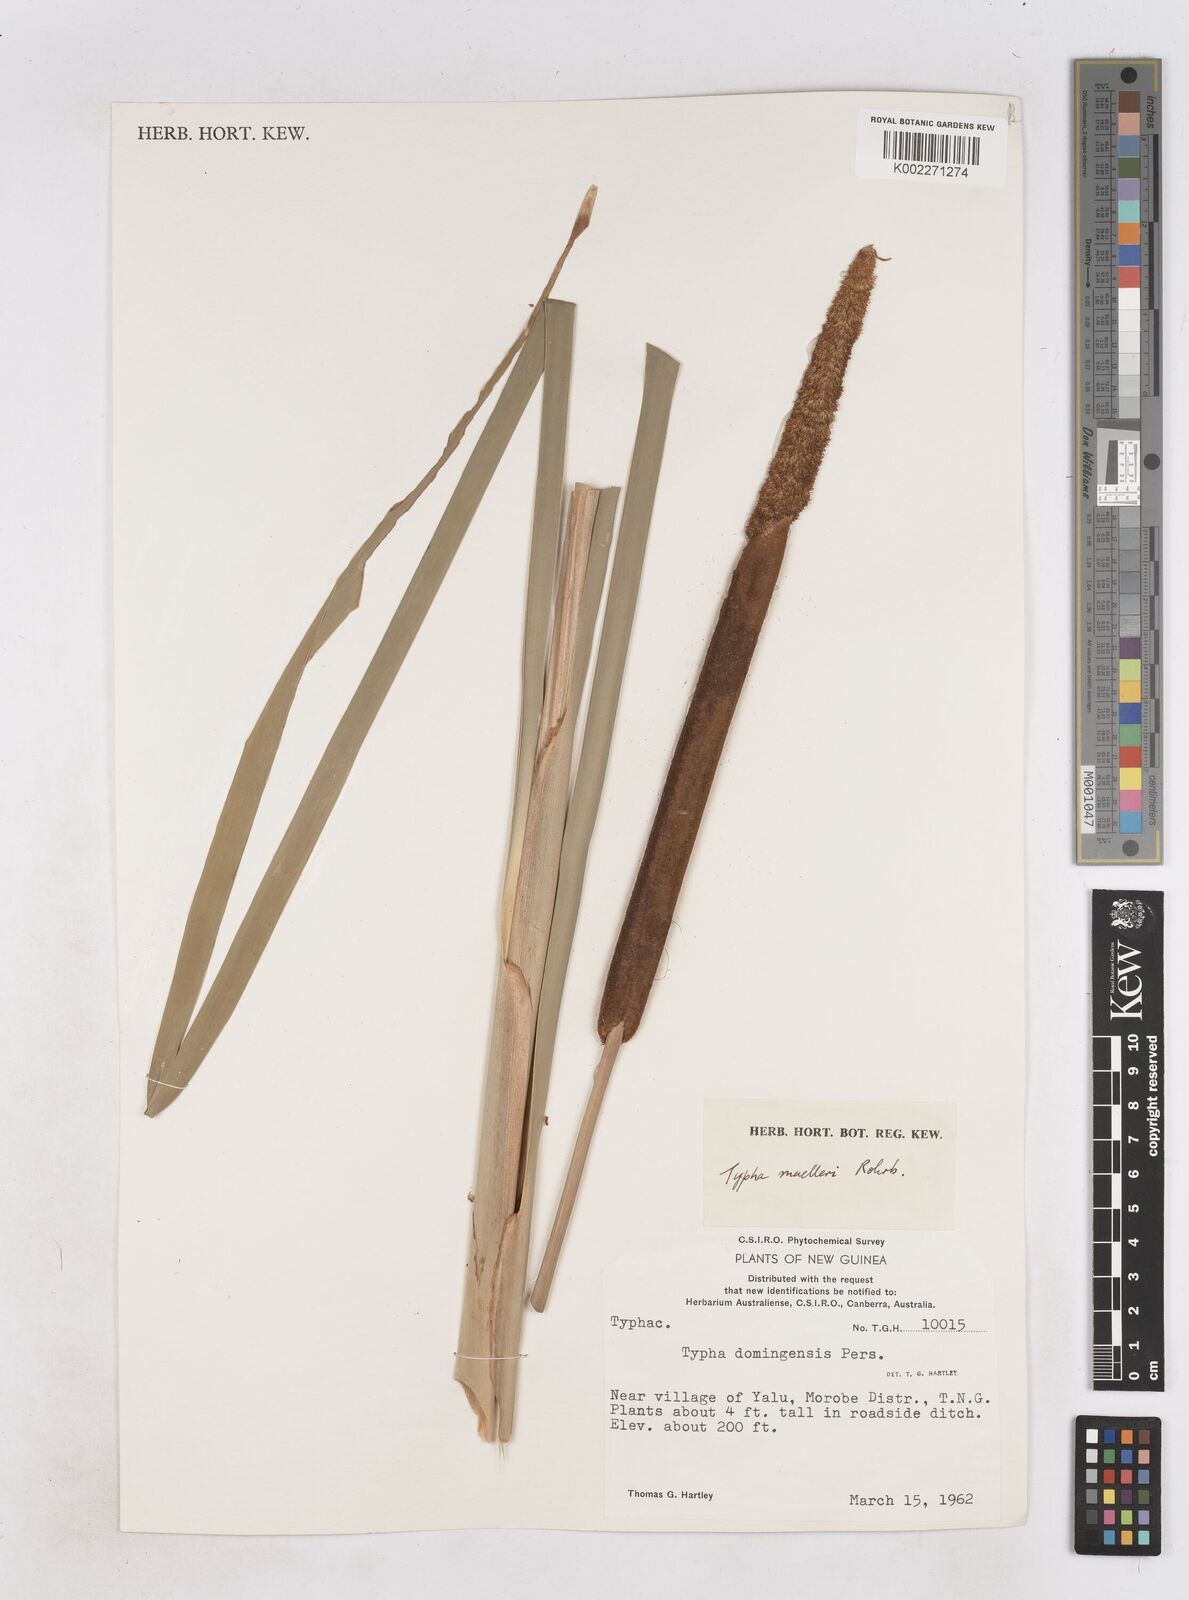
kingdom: Plantae
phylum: Tracheophyta
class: Liliopsida
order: Poales
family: Typhaceae
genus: Typha
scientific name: Typha orientalis
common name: Bullrush
